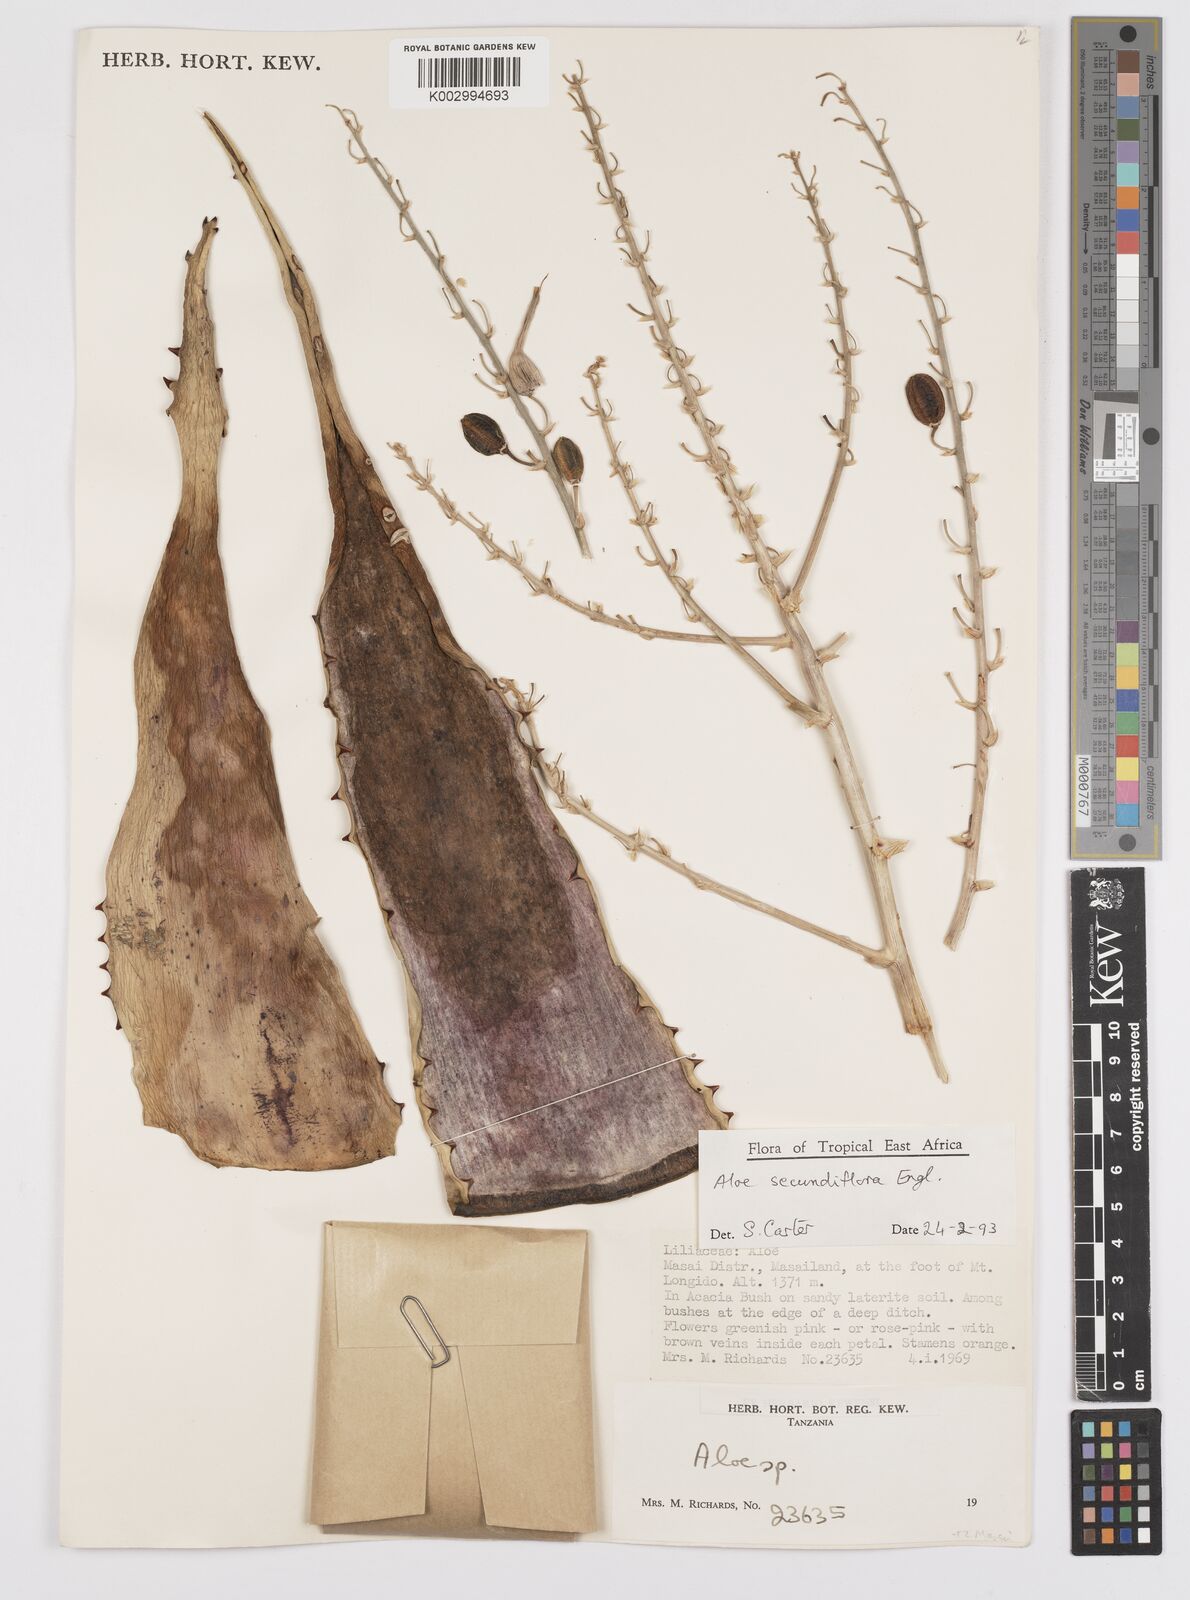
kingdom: Plantae
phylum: Tracheophyta
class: Liliopsida
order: Asparagales
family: Asphodelaceae
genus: Aloe
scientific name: Aloe secundiflora
